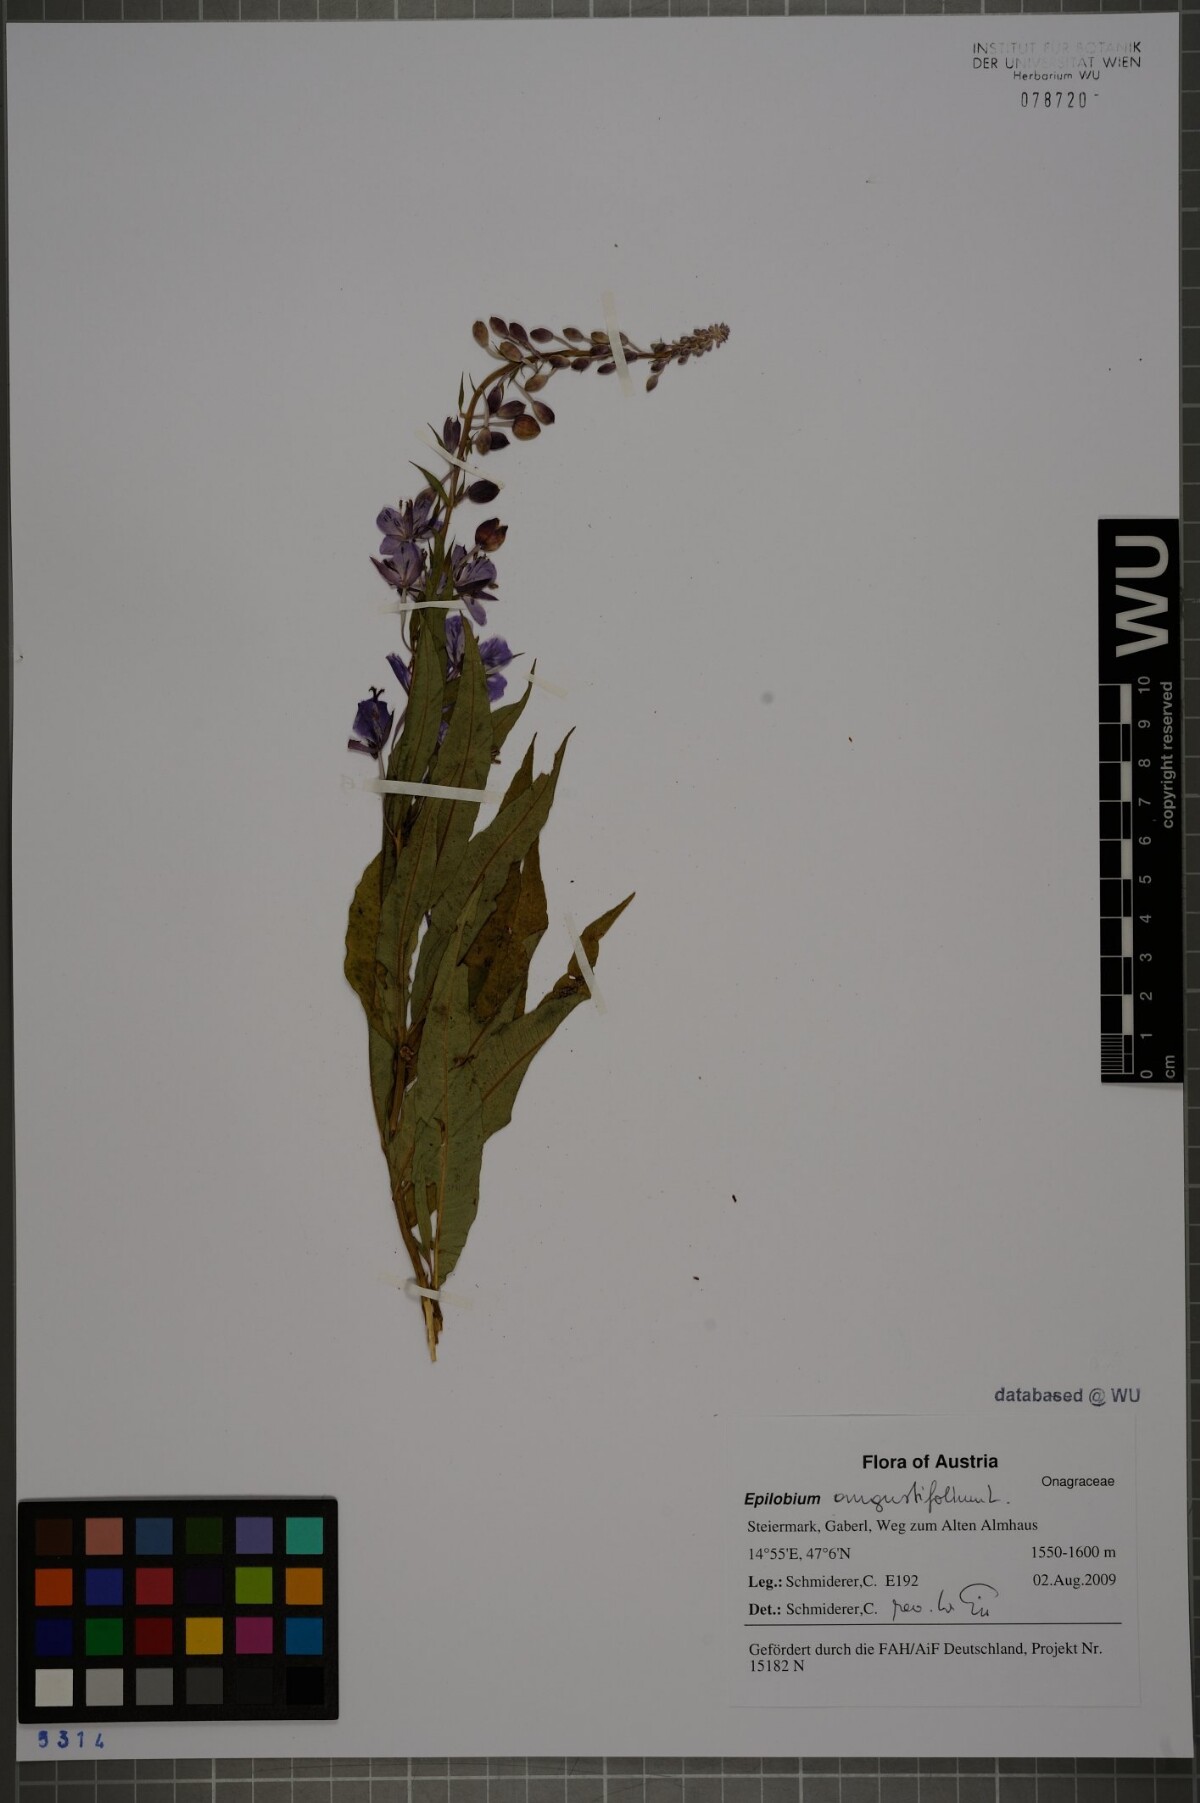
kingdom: Plantae
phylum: Tracheophyta
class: Magnoliopsida
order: Myrtales
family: Onagraceae
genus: Chamaenerion
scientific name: Chamaenerion angustifolium
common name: Fireweed
